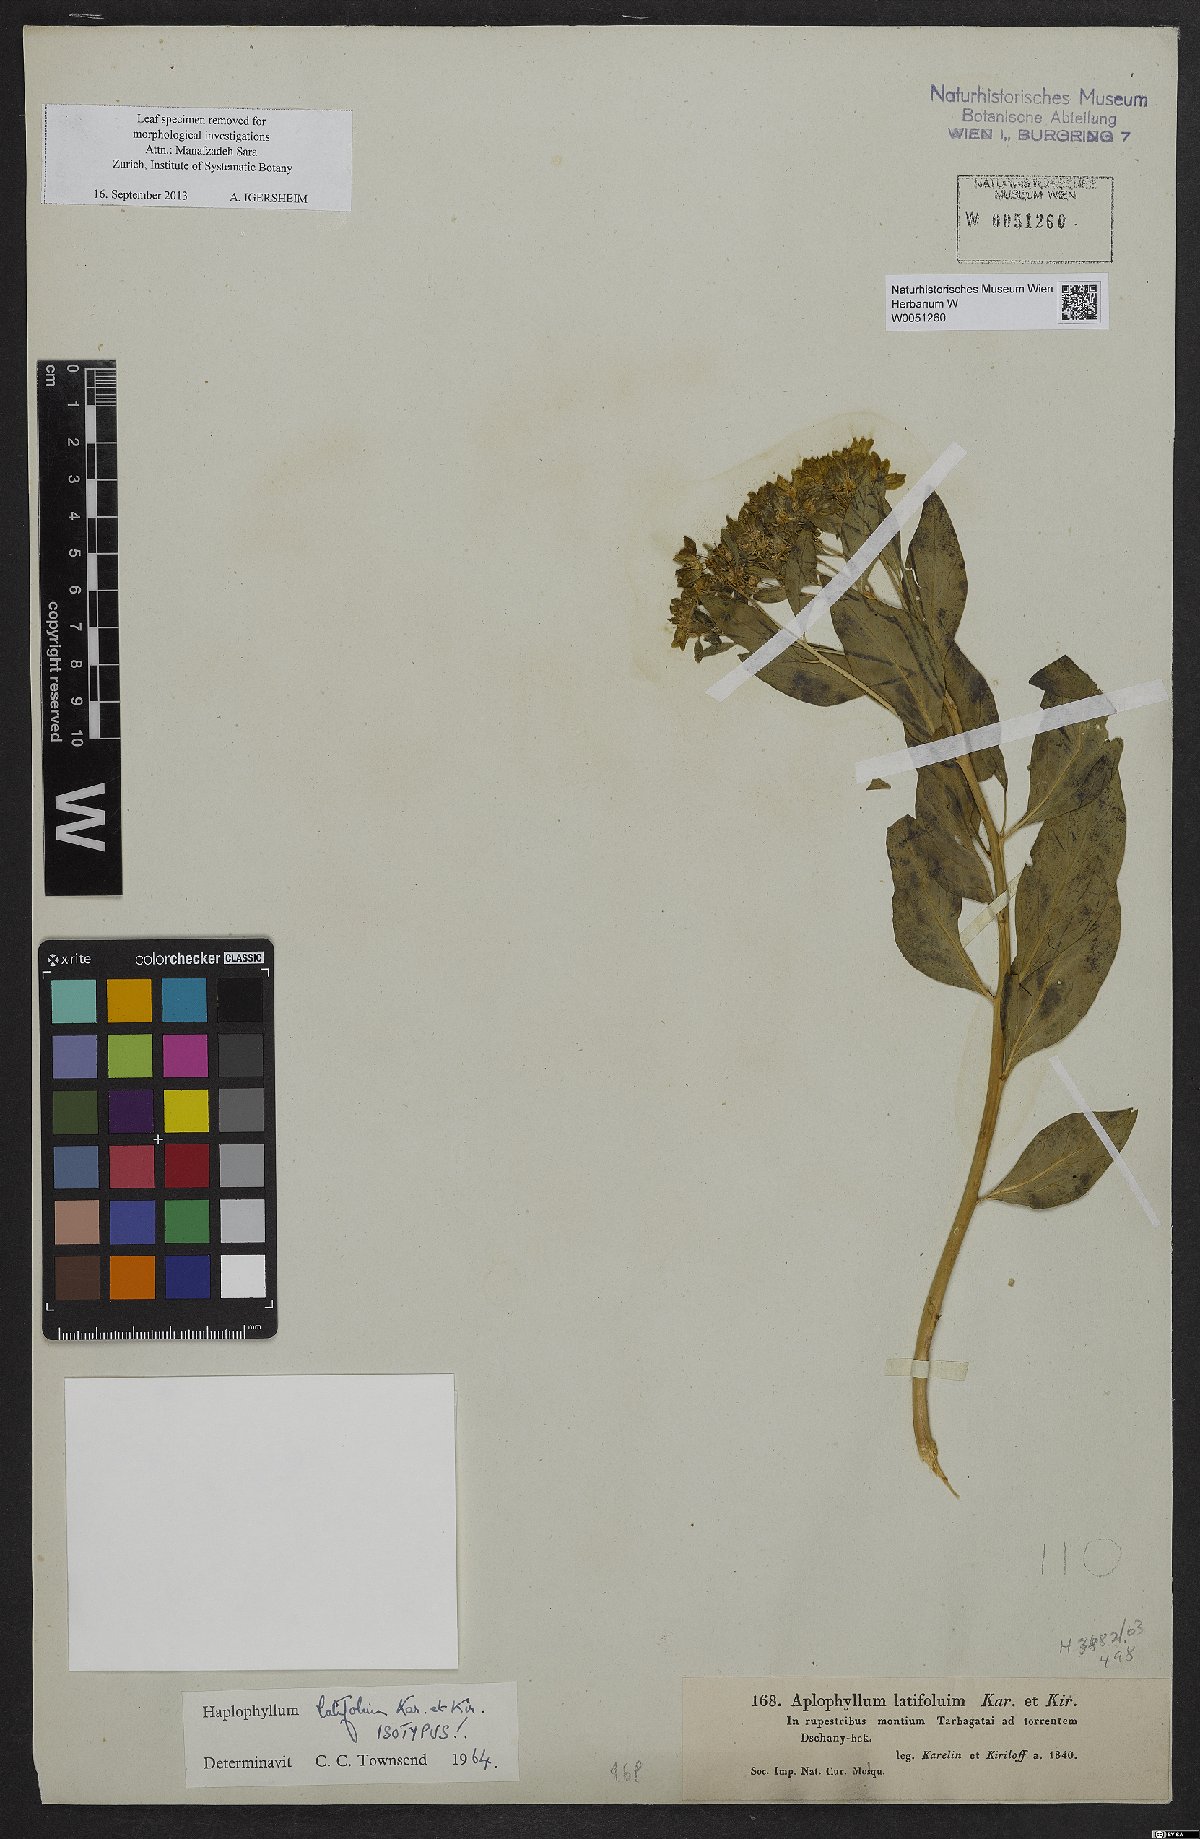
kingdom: Plantae
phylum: Tracheophyta
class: Magnoliopsida
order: Sapindales
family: Rutaceae
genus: Haplophyllum
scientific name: Haplophyllum latifolium
